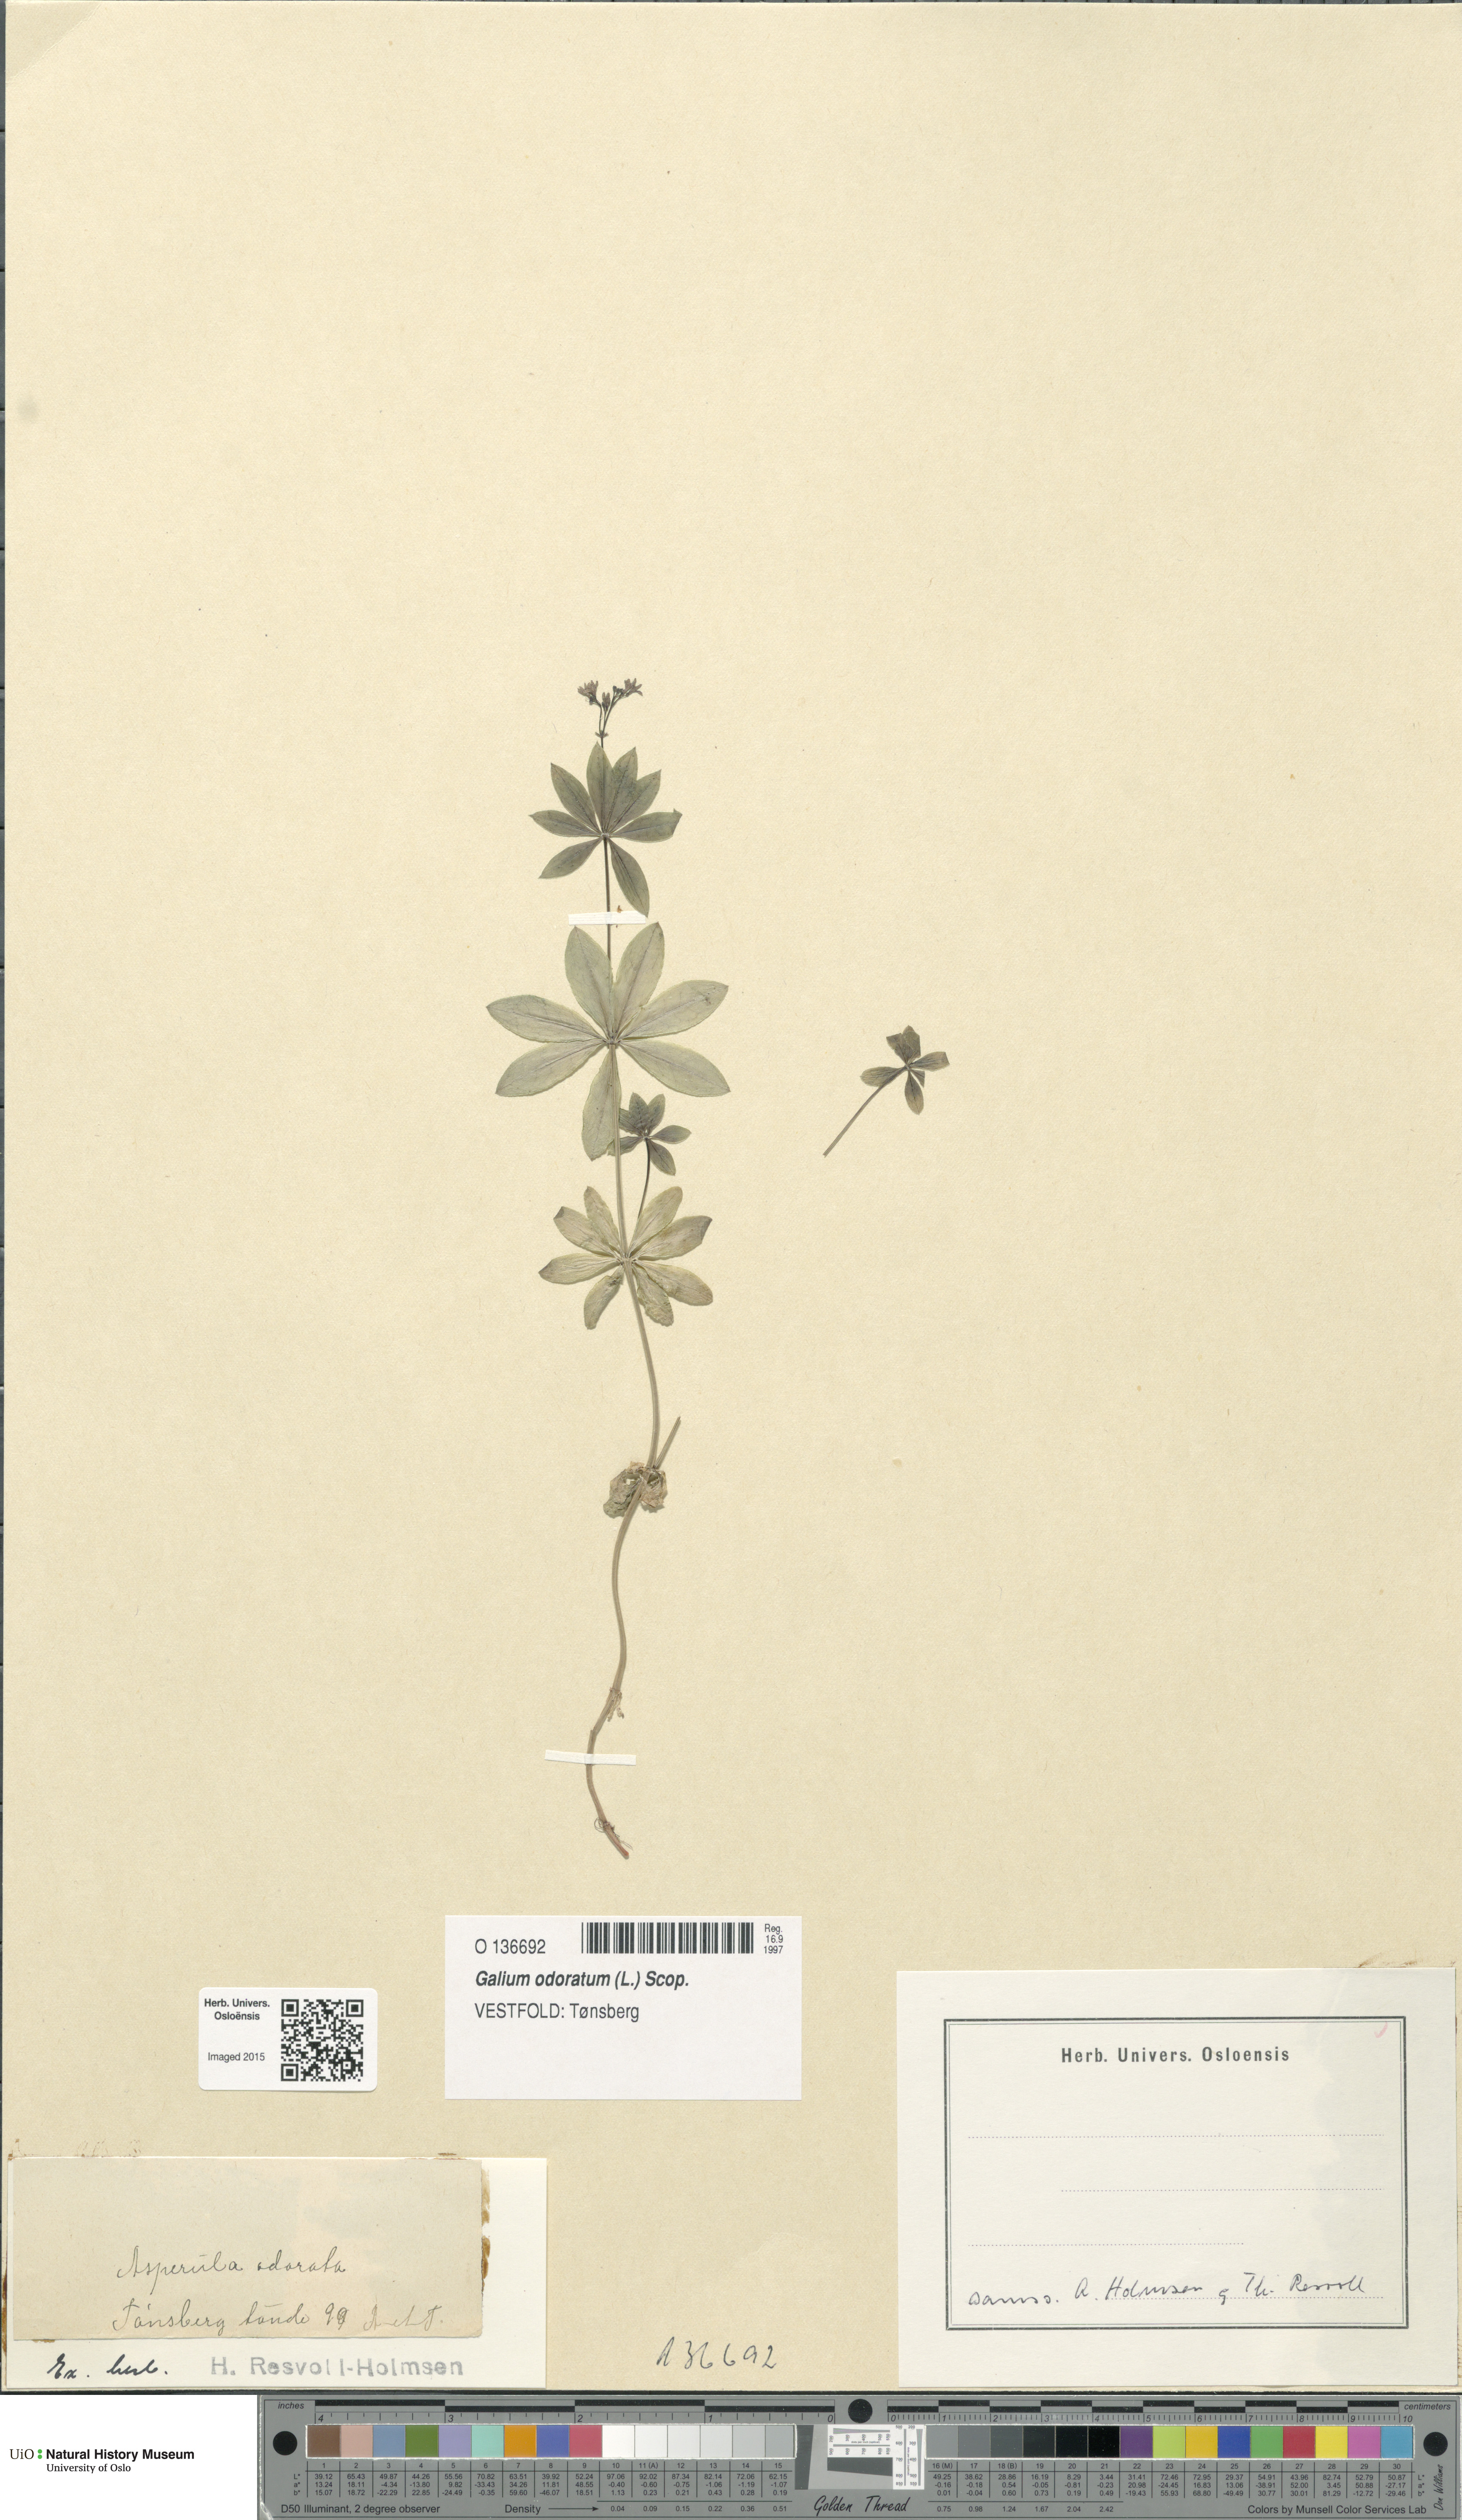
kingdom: Plantae
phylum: Tracheophyta
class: Magnoliopsida
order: Gentianales
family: Rubiaceae
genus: Galium
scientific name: Galium odoratum
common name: Sweet woodruff
